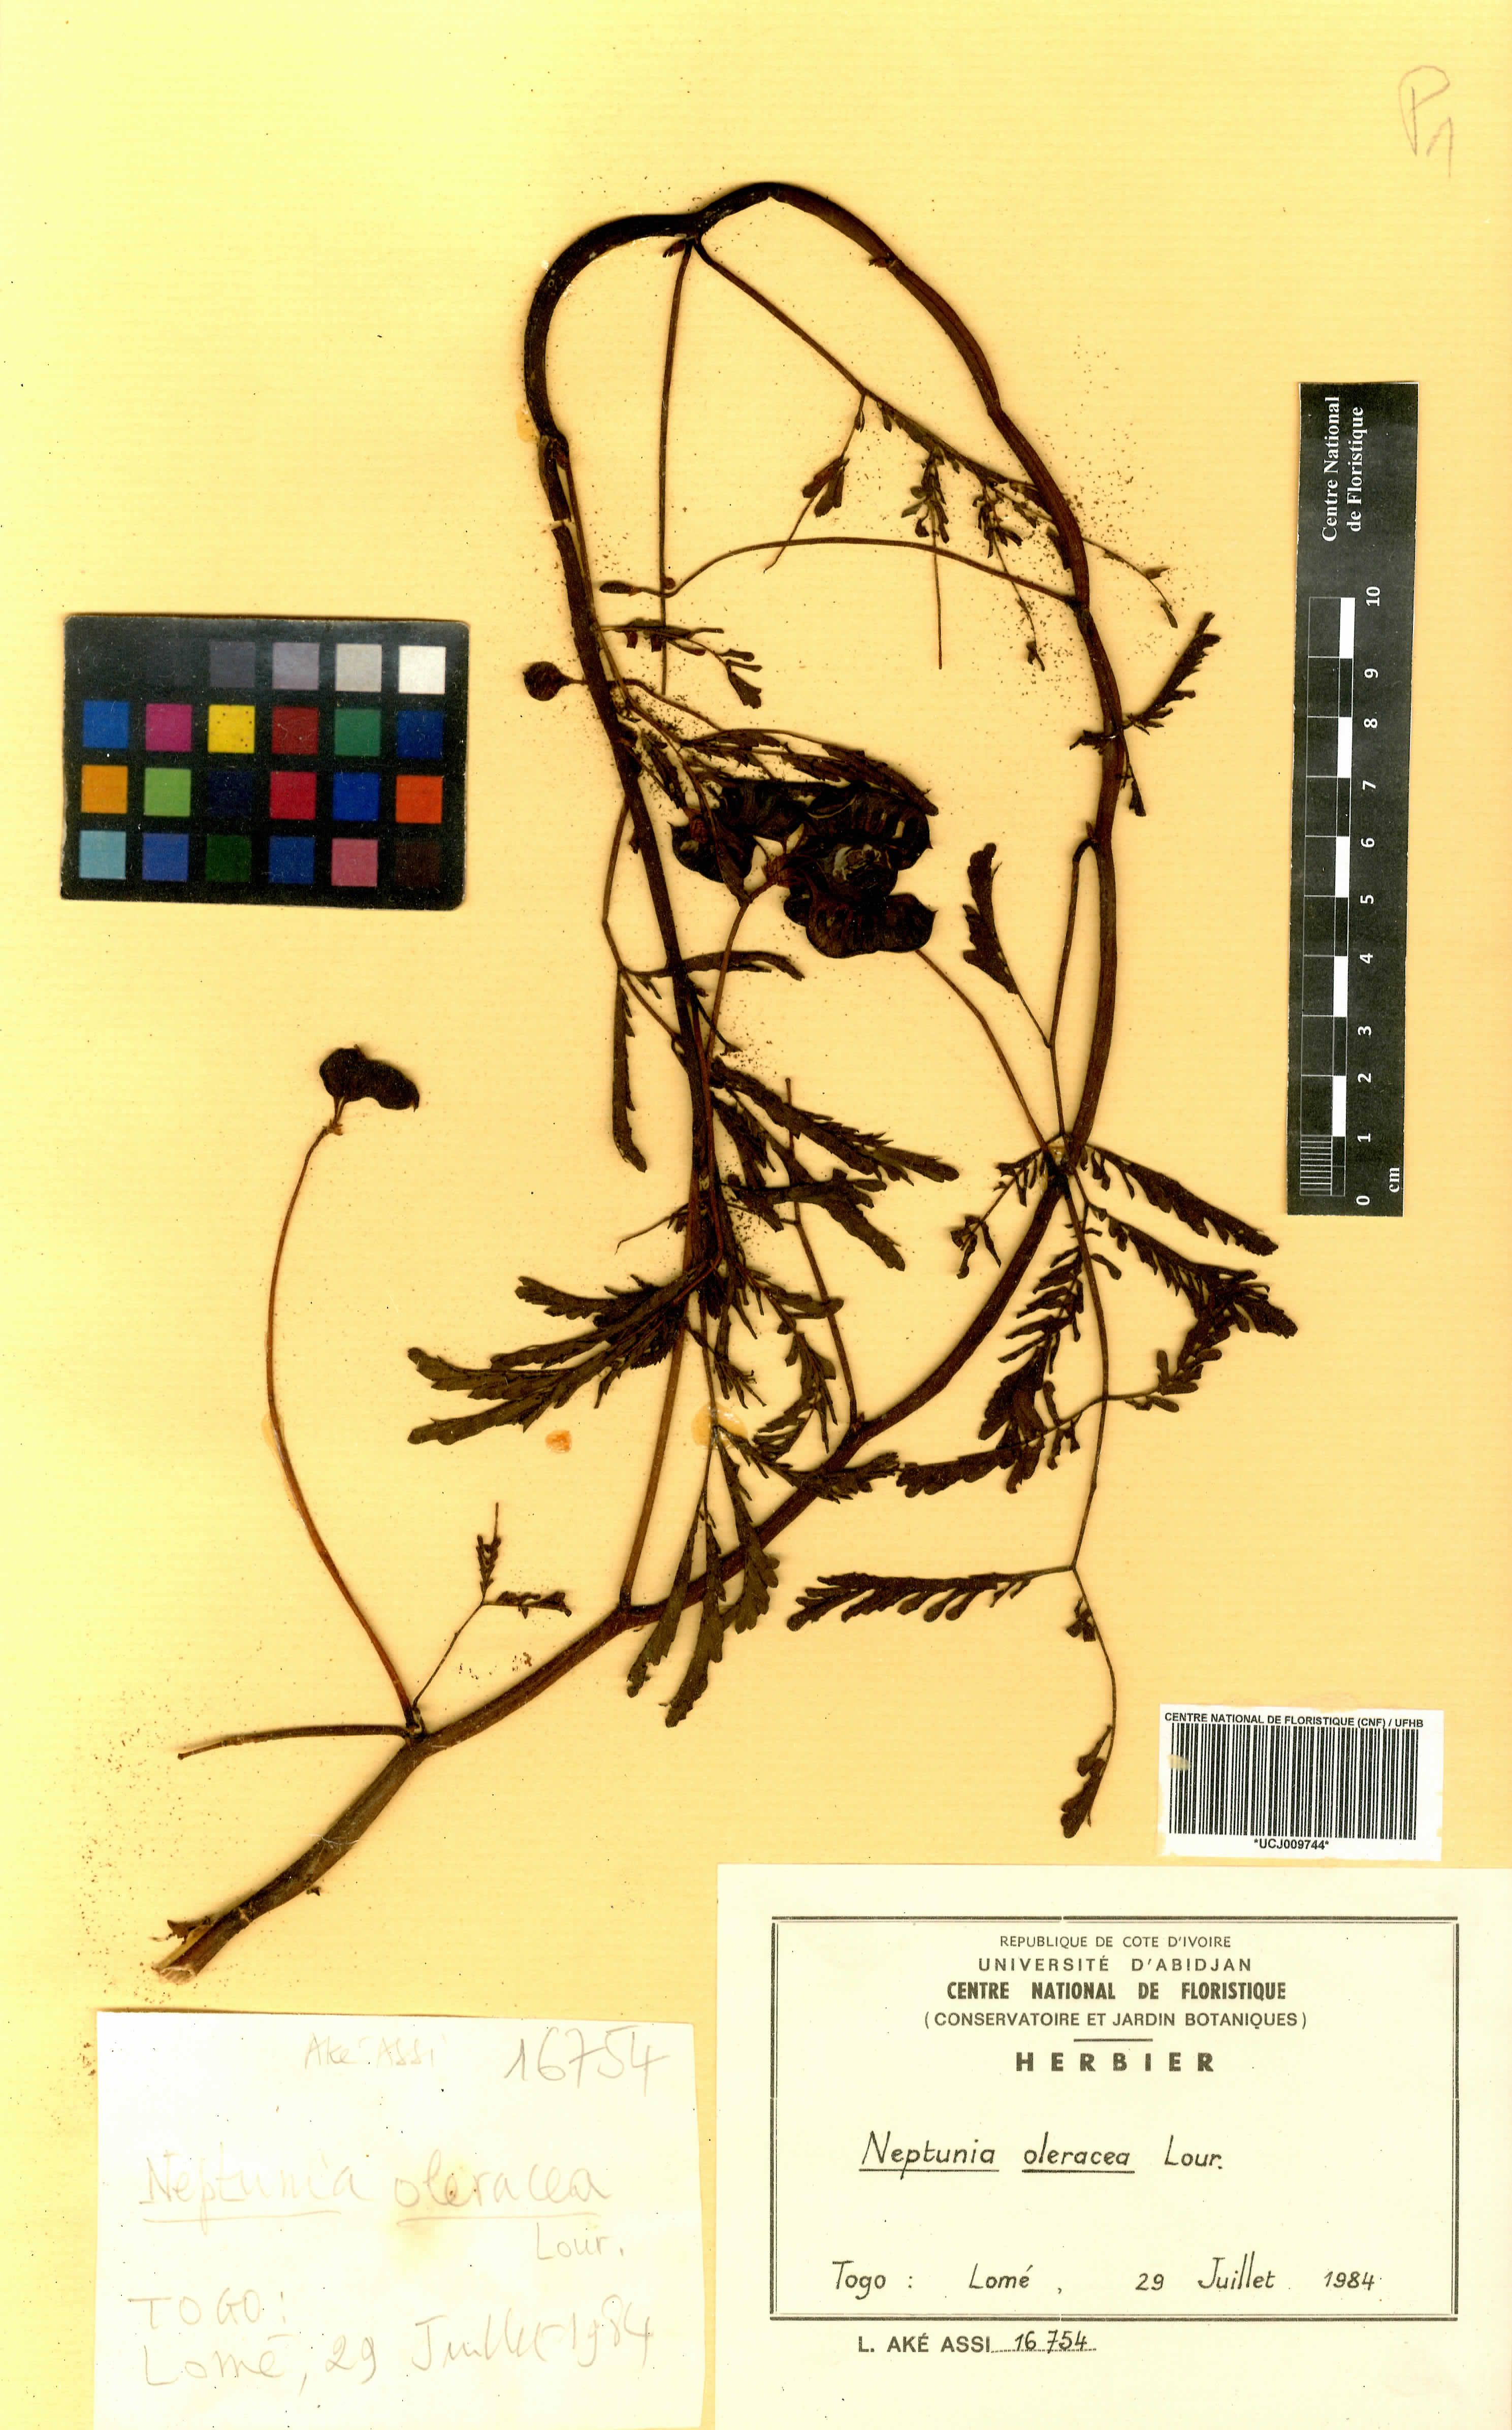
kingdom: Plantae
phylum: Tracheophyta
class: Magnoliopsida
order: Fabales
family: Fabaceae
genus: Neptunia
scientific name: Neptunia prostrata
